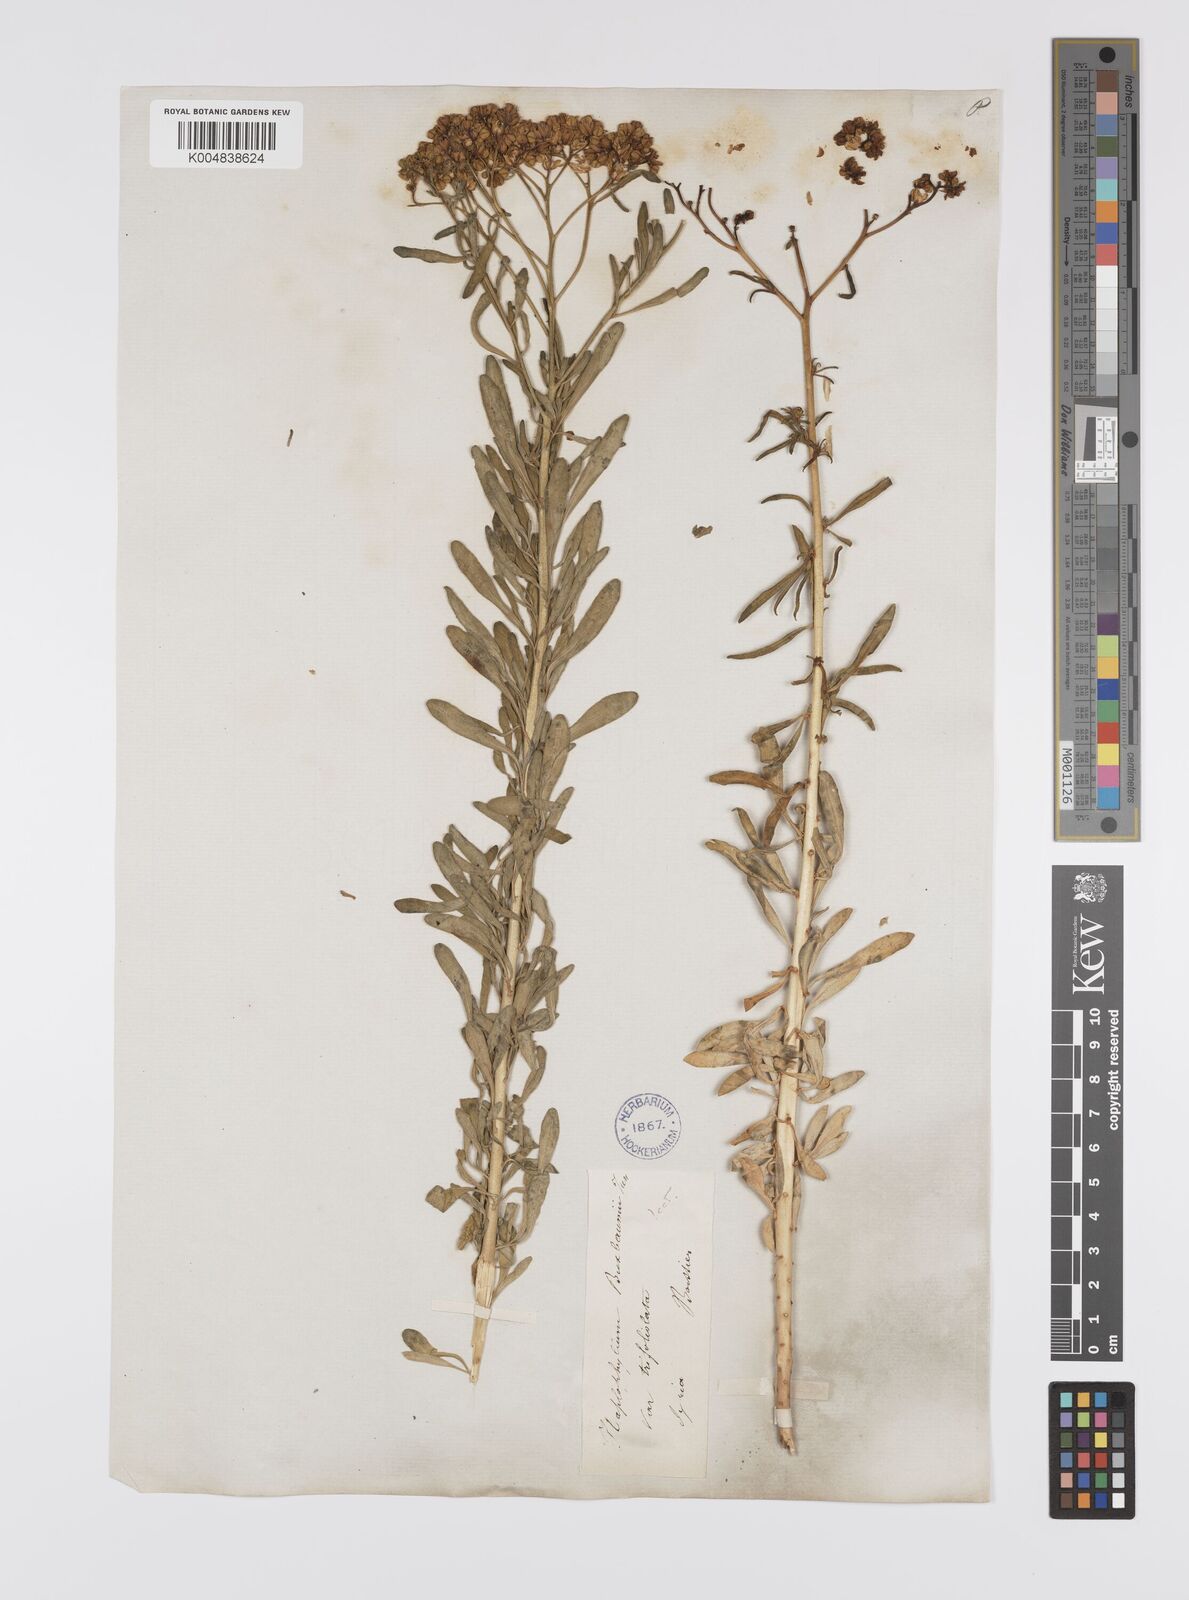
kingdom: Plantae
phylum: Tracheophyta
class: Magnoliopsida
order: Sapindales
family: Rutaceae
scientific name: Rutaceae
